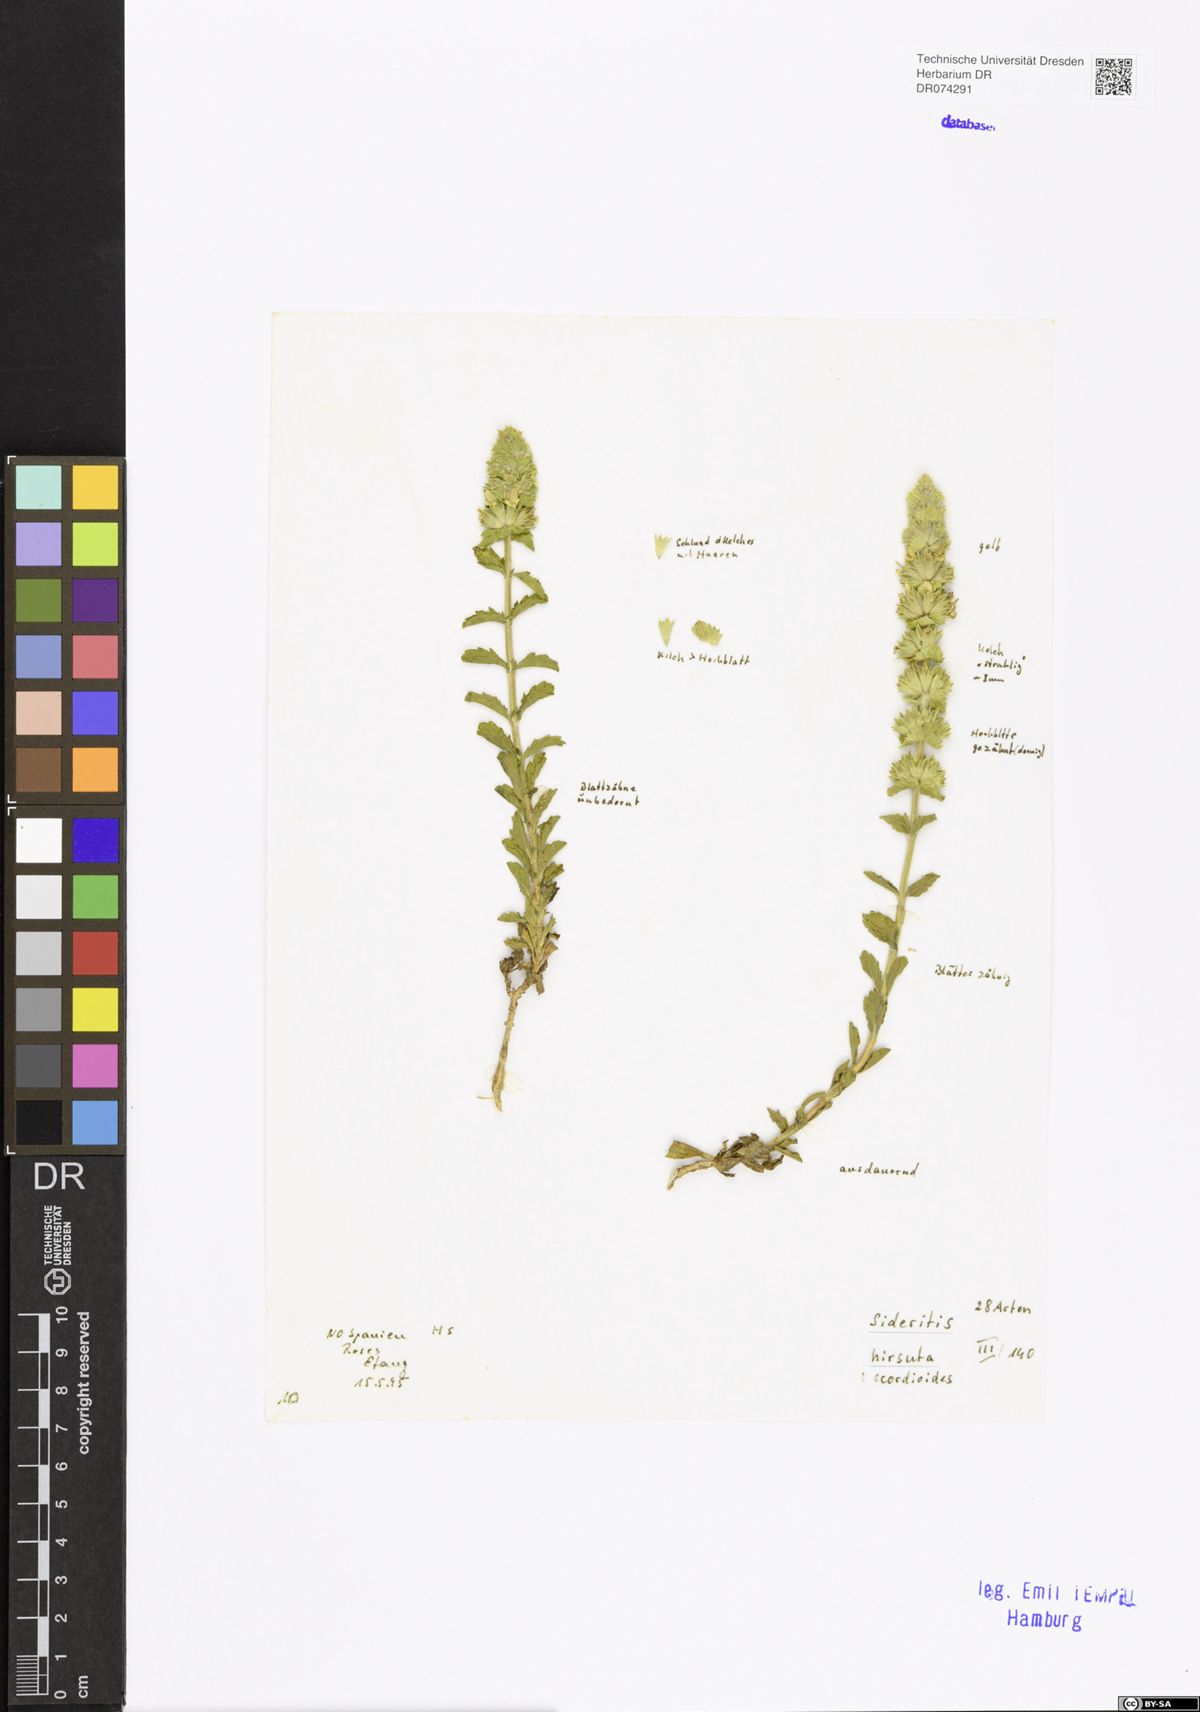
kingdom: Plantae
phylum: Tracheophyta
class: Magnoliopsida
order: Lamiales
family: Lamiaceae
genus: Sideritis
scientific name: Sideritis hirsuta
